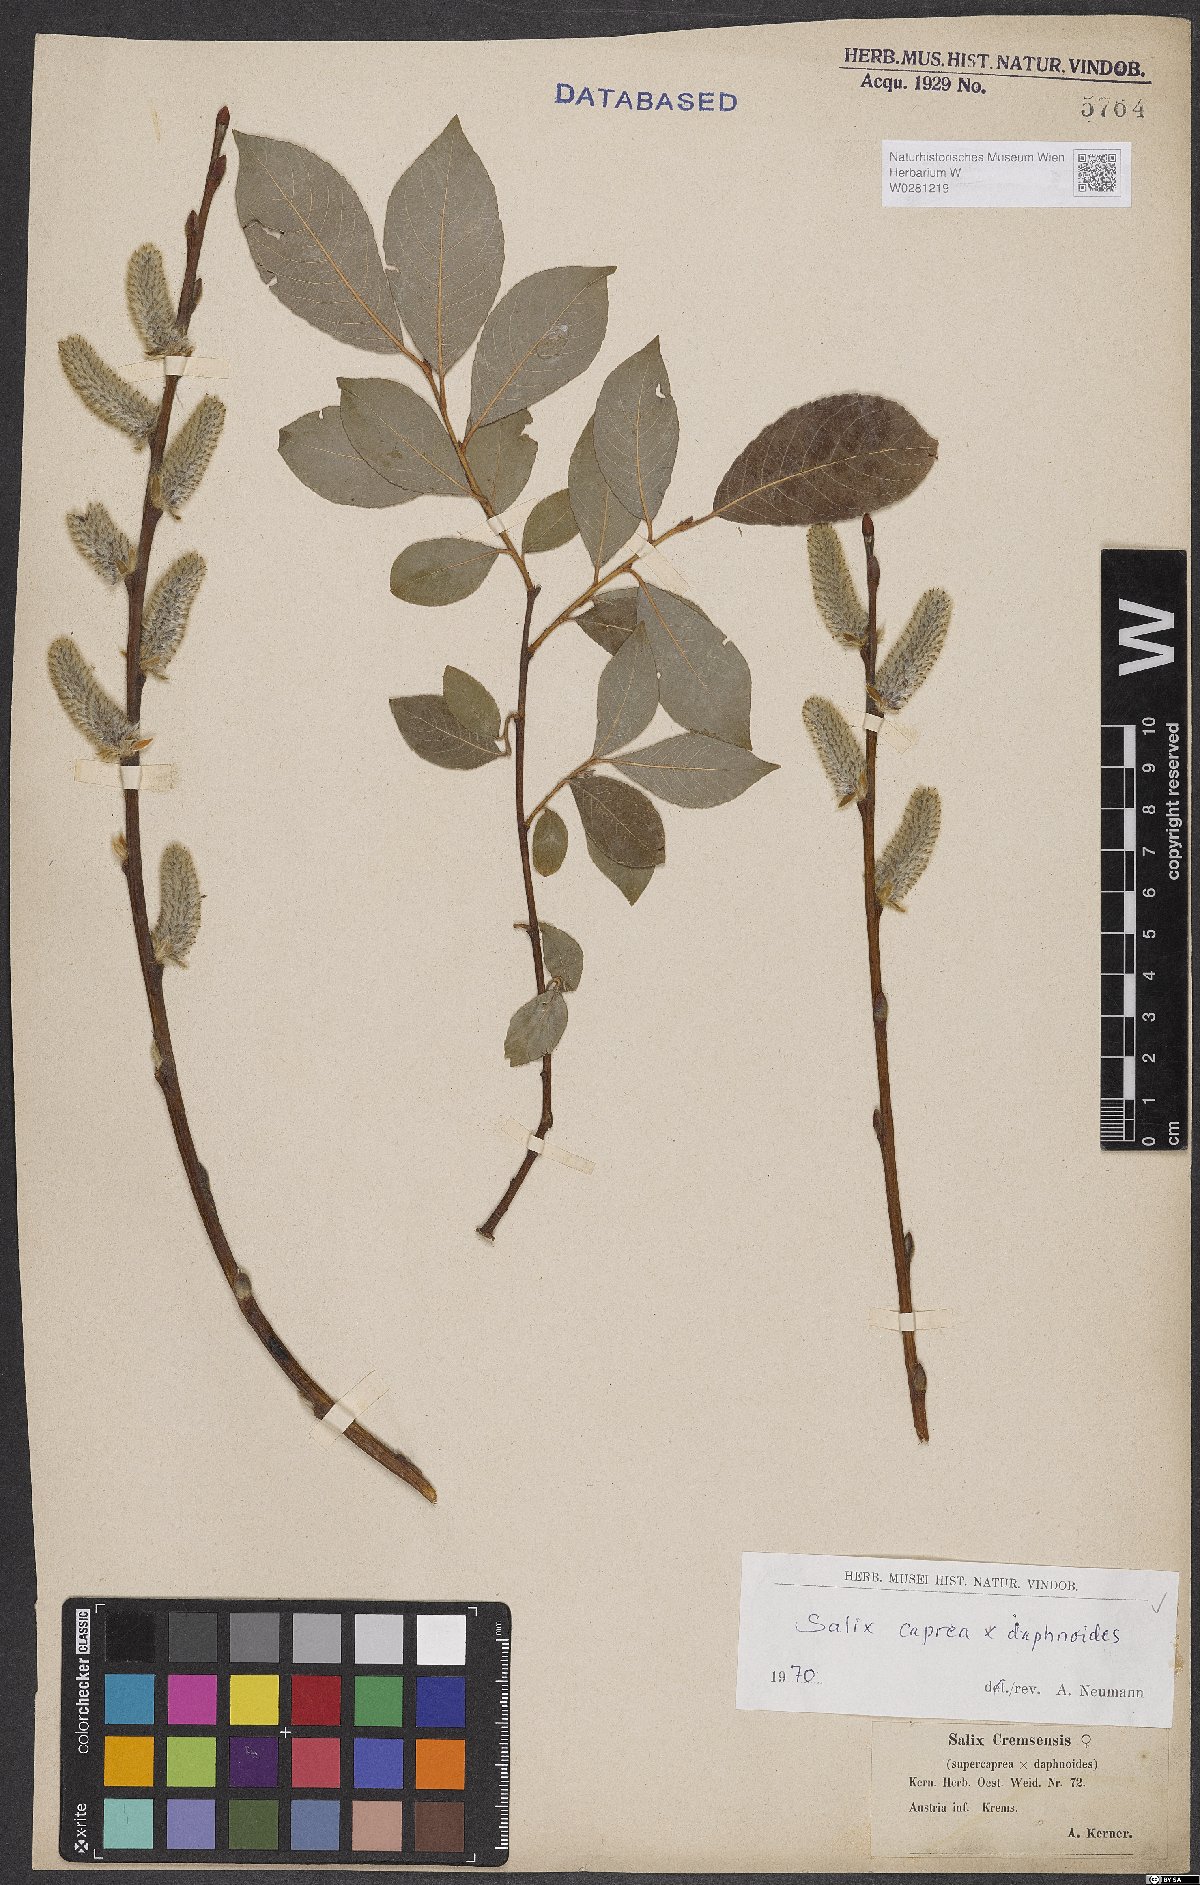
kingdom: Plantae
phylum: Tracheophyta
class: Magnoliopsida
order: Malpighiales
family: Salicaceae
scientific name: Salicaceae
